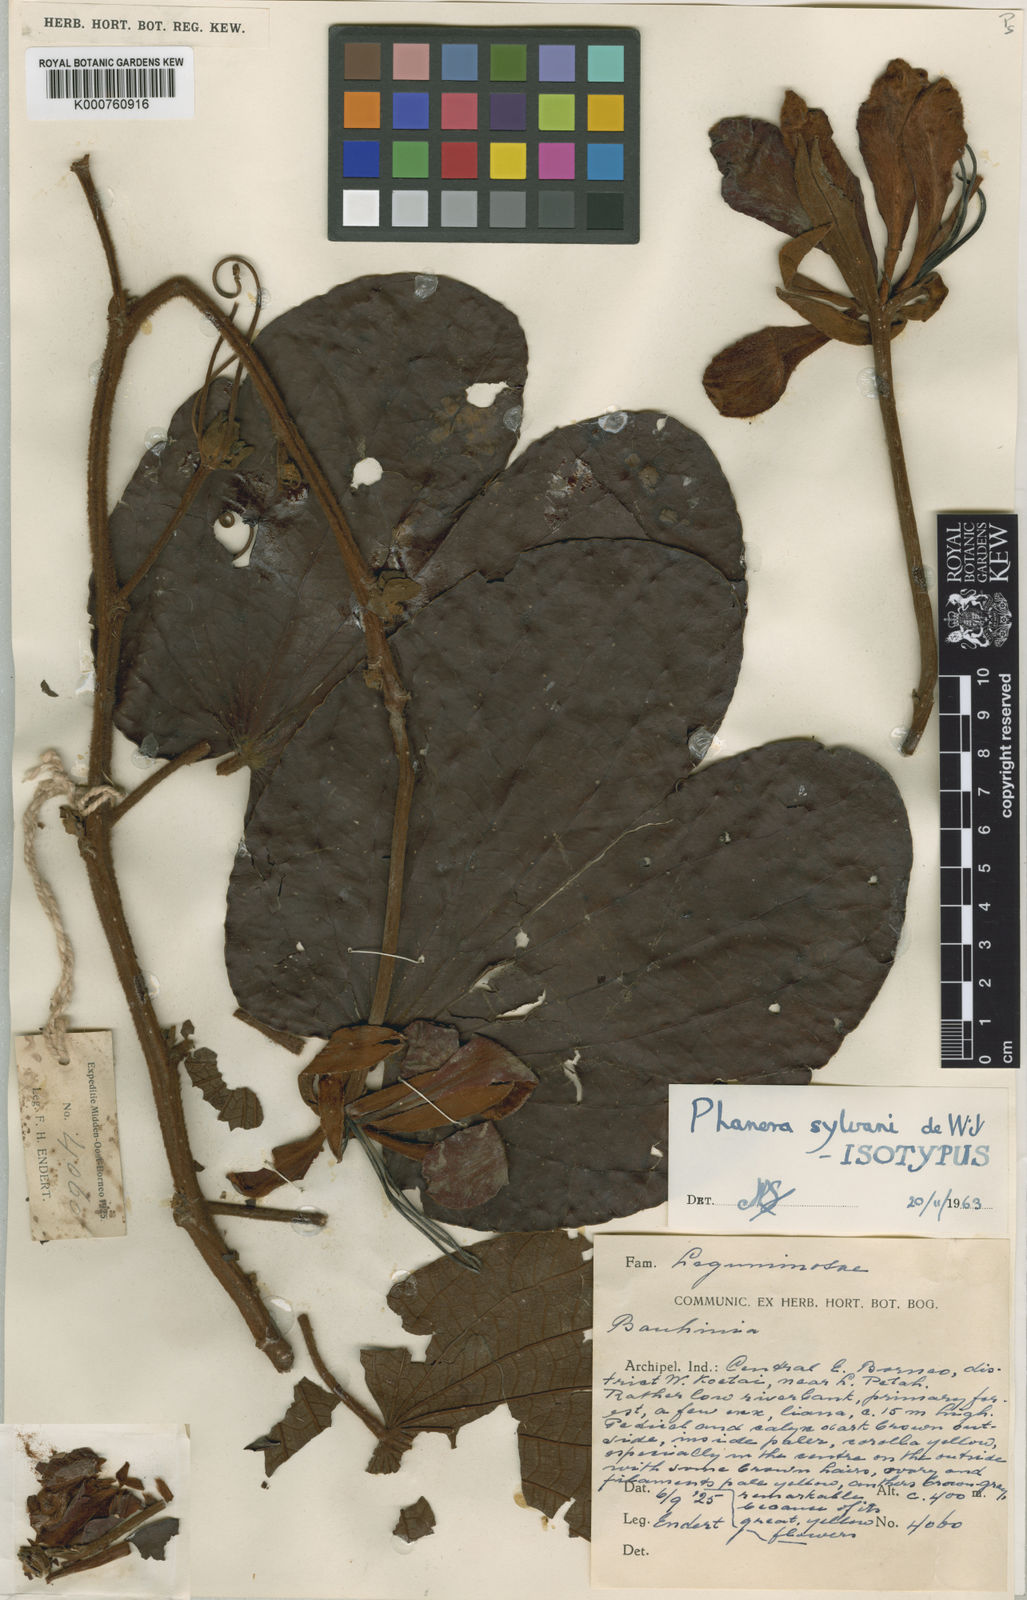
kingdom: Plantae
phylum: Tracheophyta
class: Magnoliopsida
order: Fabales
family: Fabaceae
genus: Phanera
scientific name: Phanera sylvani
